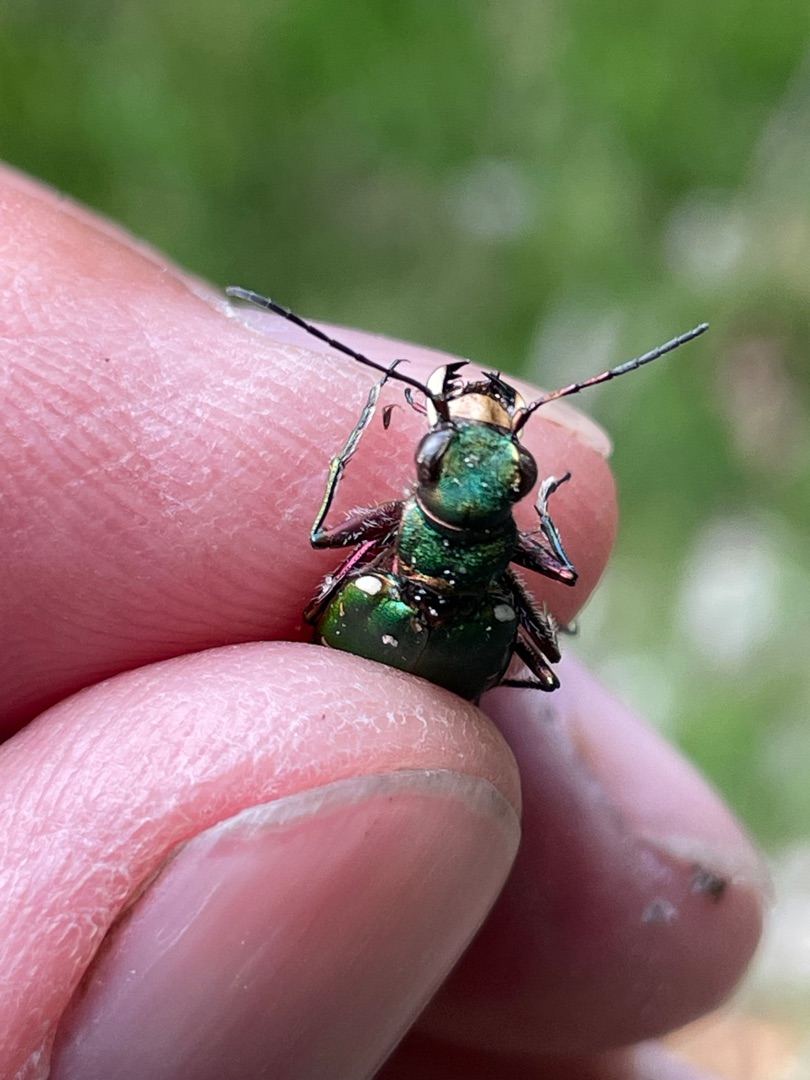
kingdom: Animalia
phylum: Arthropoda
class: Insecta
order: Coleoptera
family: Carabidae
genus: Cicindela
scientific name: Cicindela campestris
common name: Grøn sandspringer
